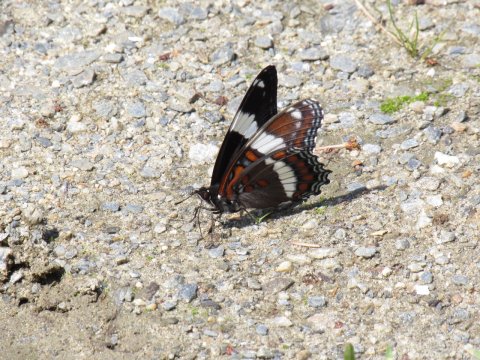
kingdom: Animalia
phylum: Arthropoda
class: Insecta
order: Lepidoptera
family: Nymphalidae
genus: Limenitis
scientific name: Limenitis arthemis
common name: Red-spotted Admiral
